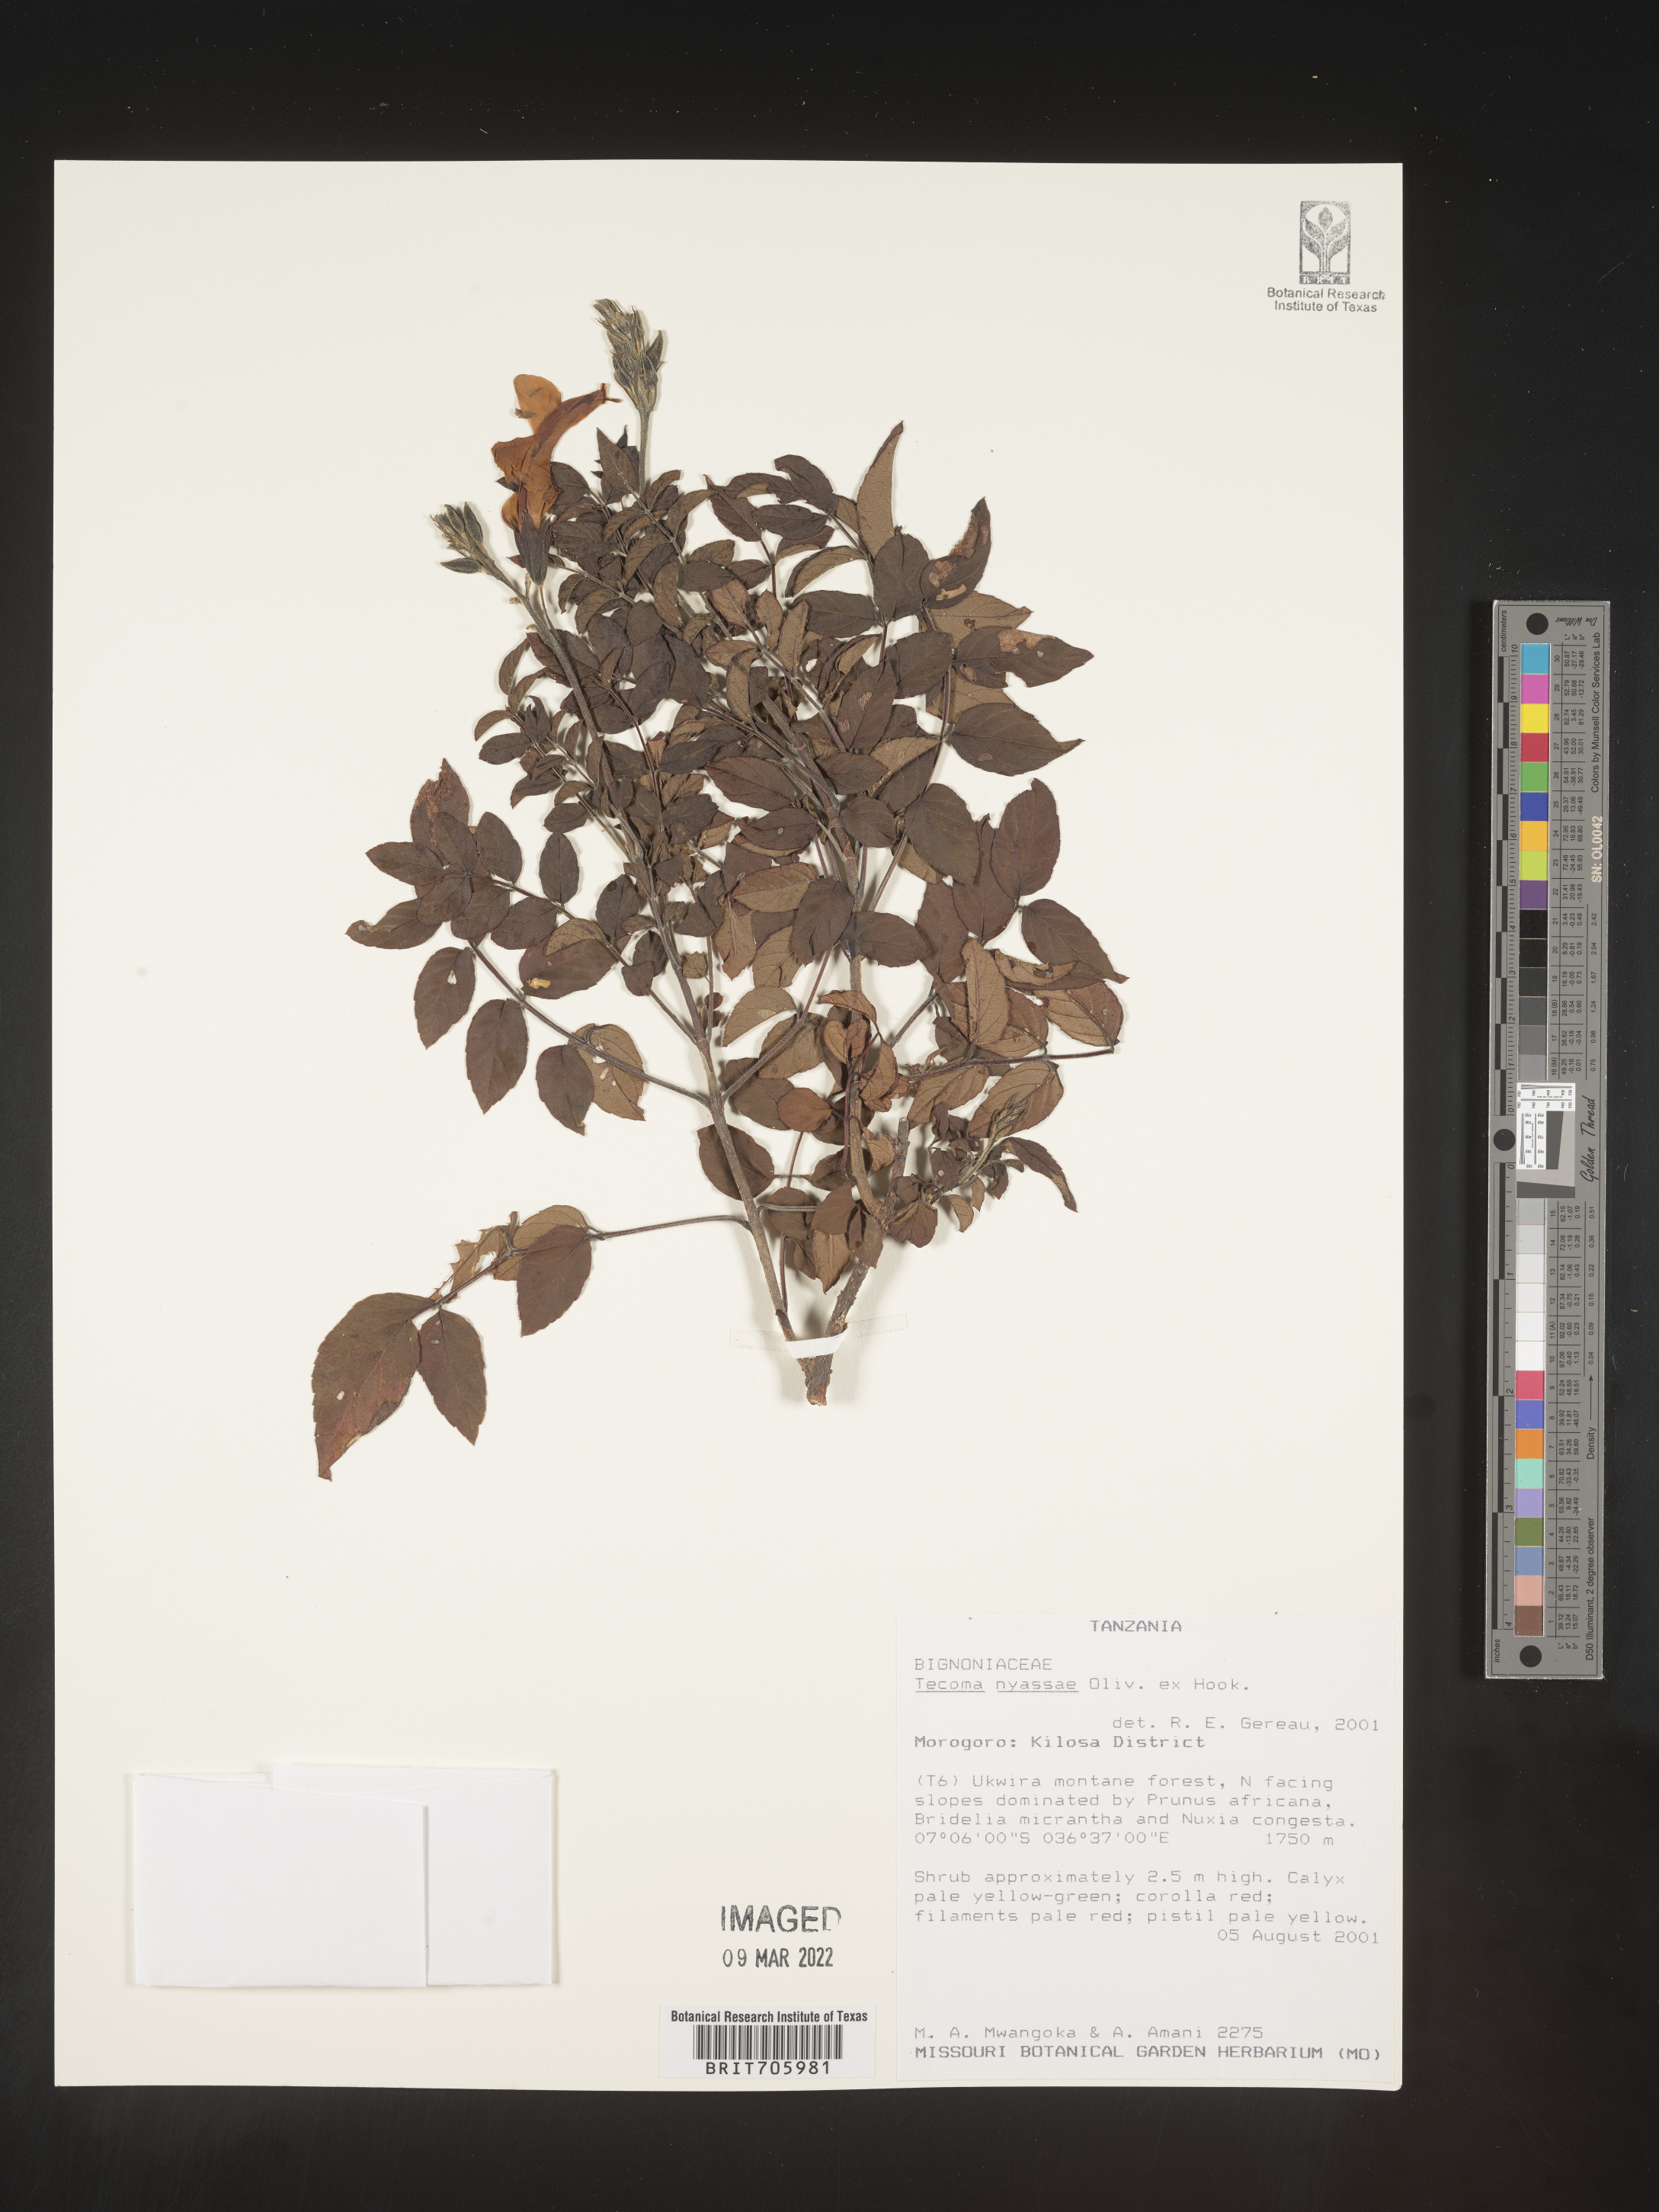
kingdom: Plantae
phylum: Tracheophyta
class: Magnoliopsida
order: Lamiales
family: Bignoniaceae
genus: Tecoma
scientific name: Tecoma
